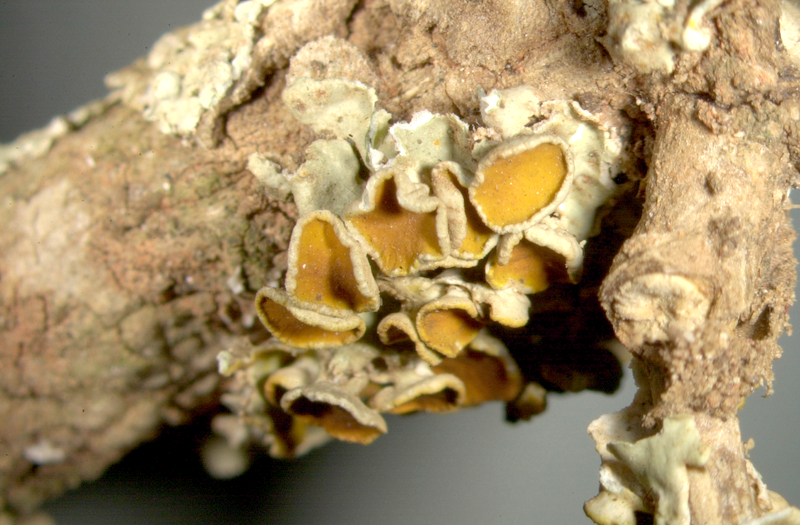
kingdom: Fungi
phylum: Ascomycota
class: Lecanoromycetes
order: Teloschistales
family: Teloschistaceae
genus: Xanthoria
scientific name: Xanthoria parietina
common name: Common orange lichen
